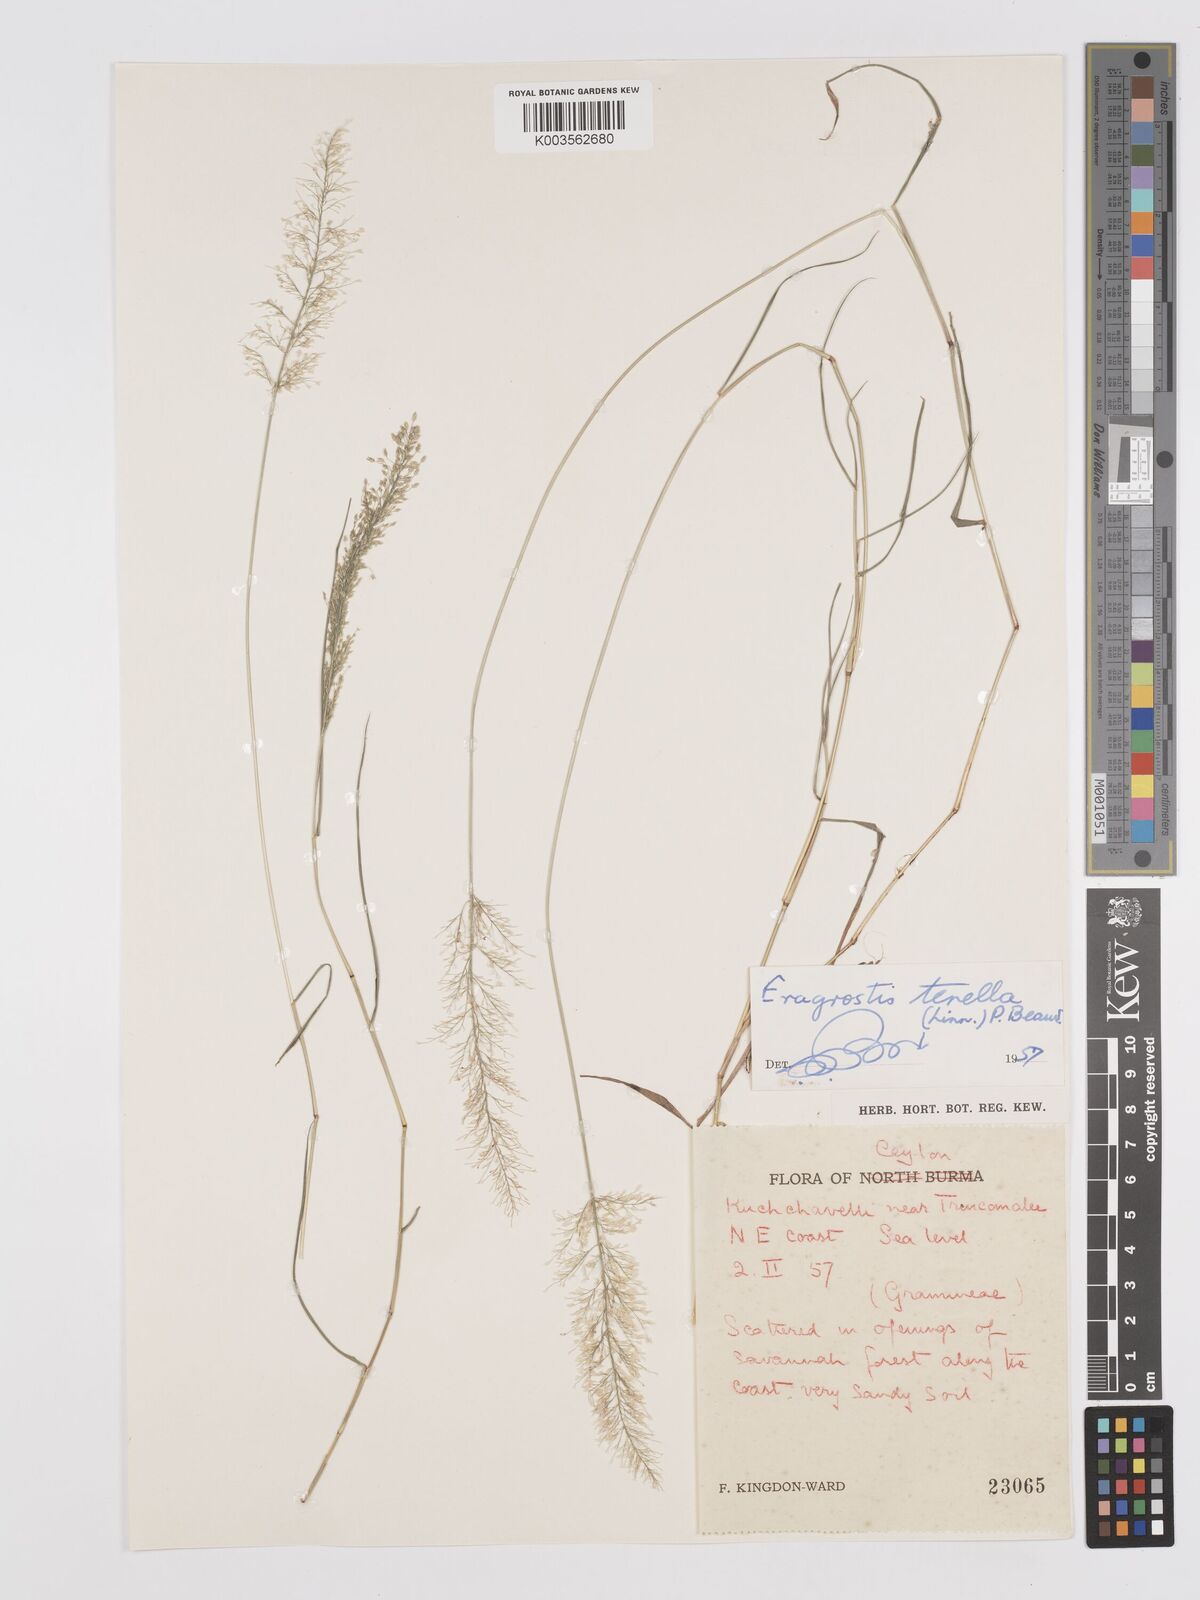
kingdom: Plantae
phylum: Tracheophyta
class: Liliopsida
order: Poales
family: Poaceae
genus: Eragrostis
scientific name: Eragrostis tenella
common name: Japanese lovegrass
